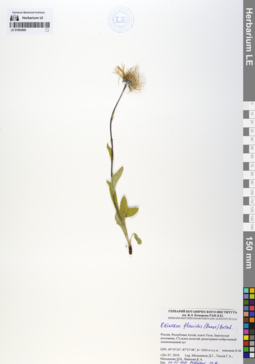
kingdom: Plantae
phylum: Tracheophyta
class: Magnoliopsida
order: Asterales
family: Asteraceae
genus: Tibetiodes
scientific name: Tibetiodes flaccida
